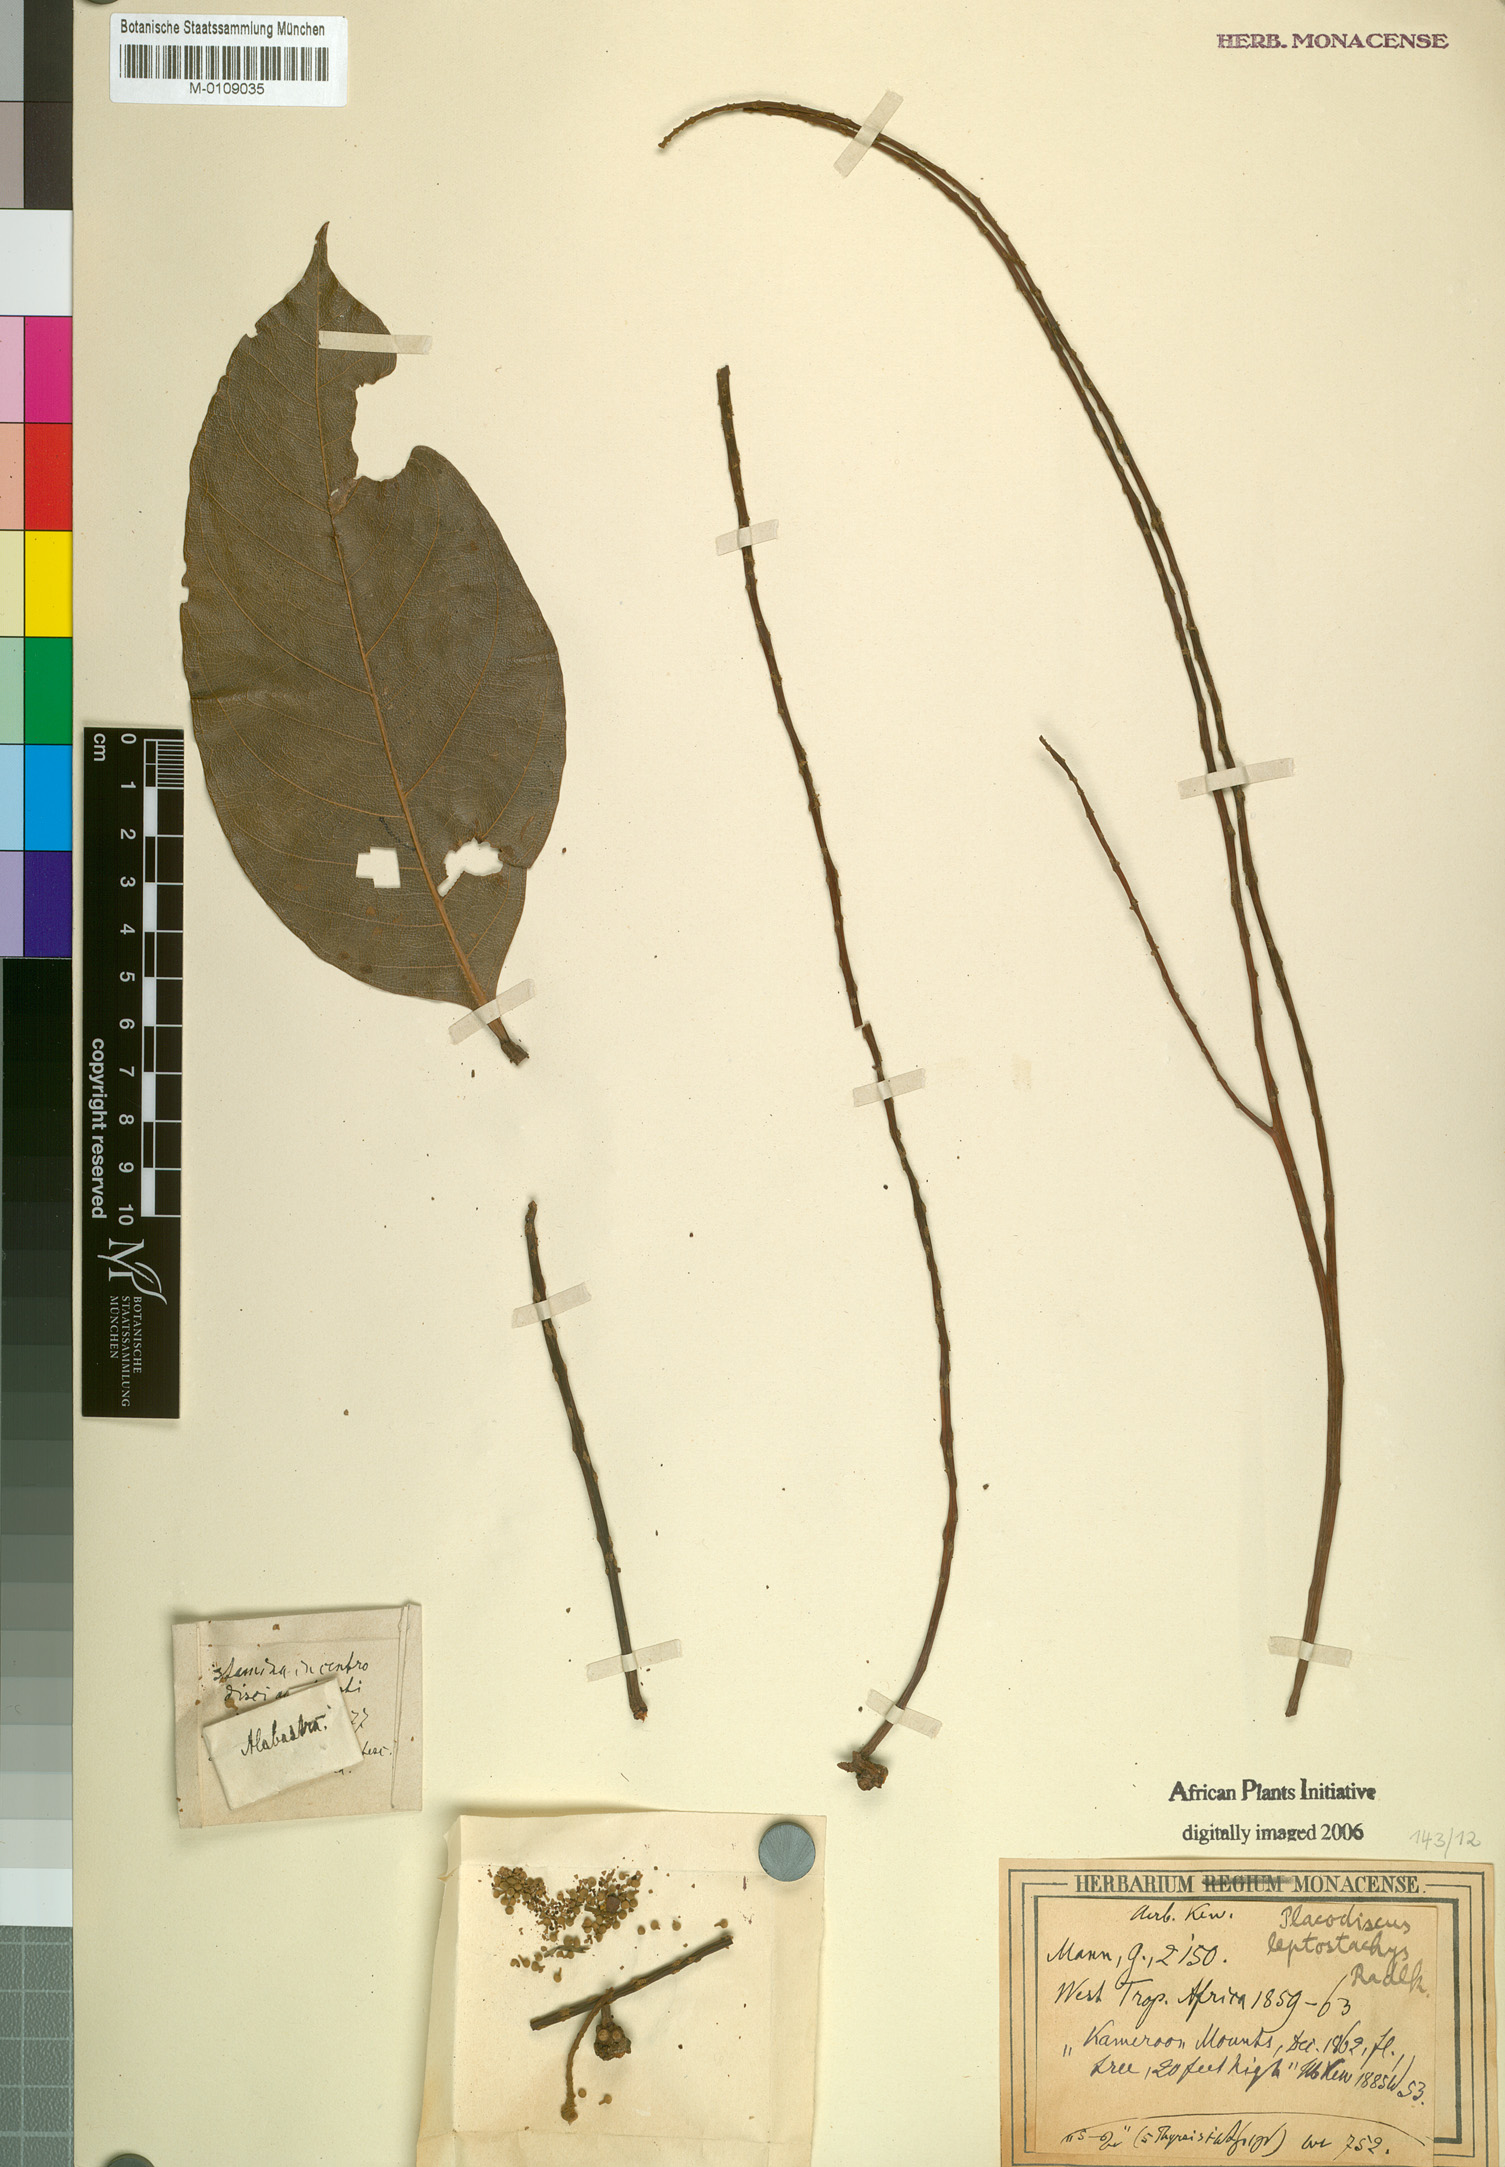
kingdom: Plantae
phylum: Tracheophyta
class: Magnoliopsida
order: Sapindales
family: Sapindaceae
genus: Placodiscus
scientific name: Placodiscus leptostachys
